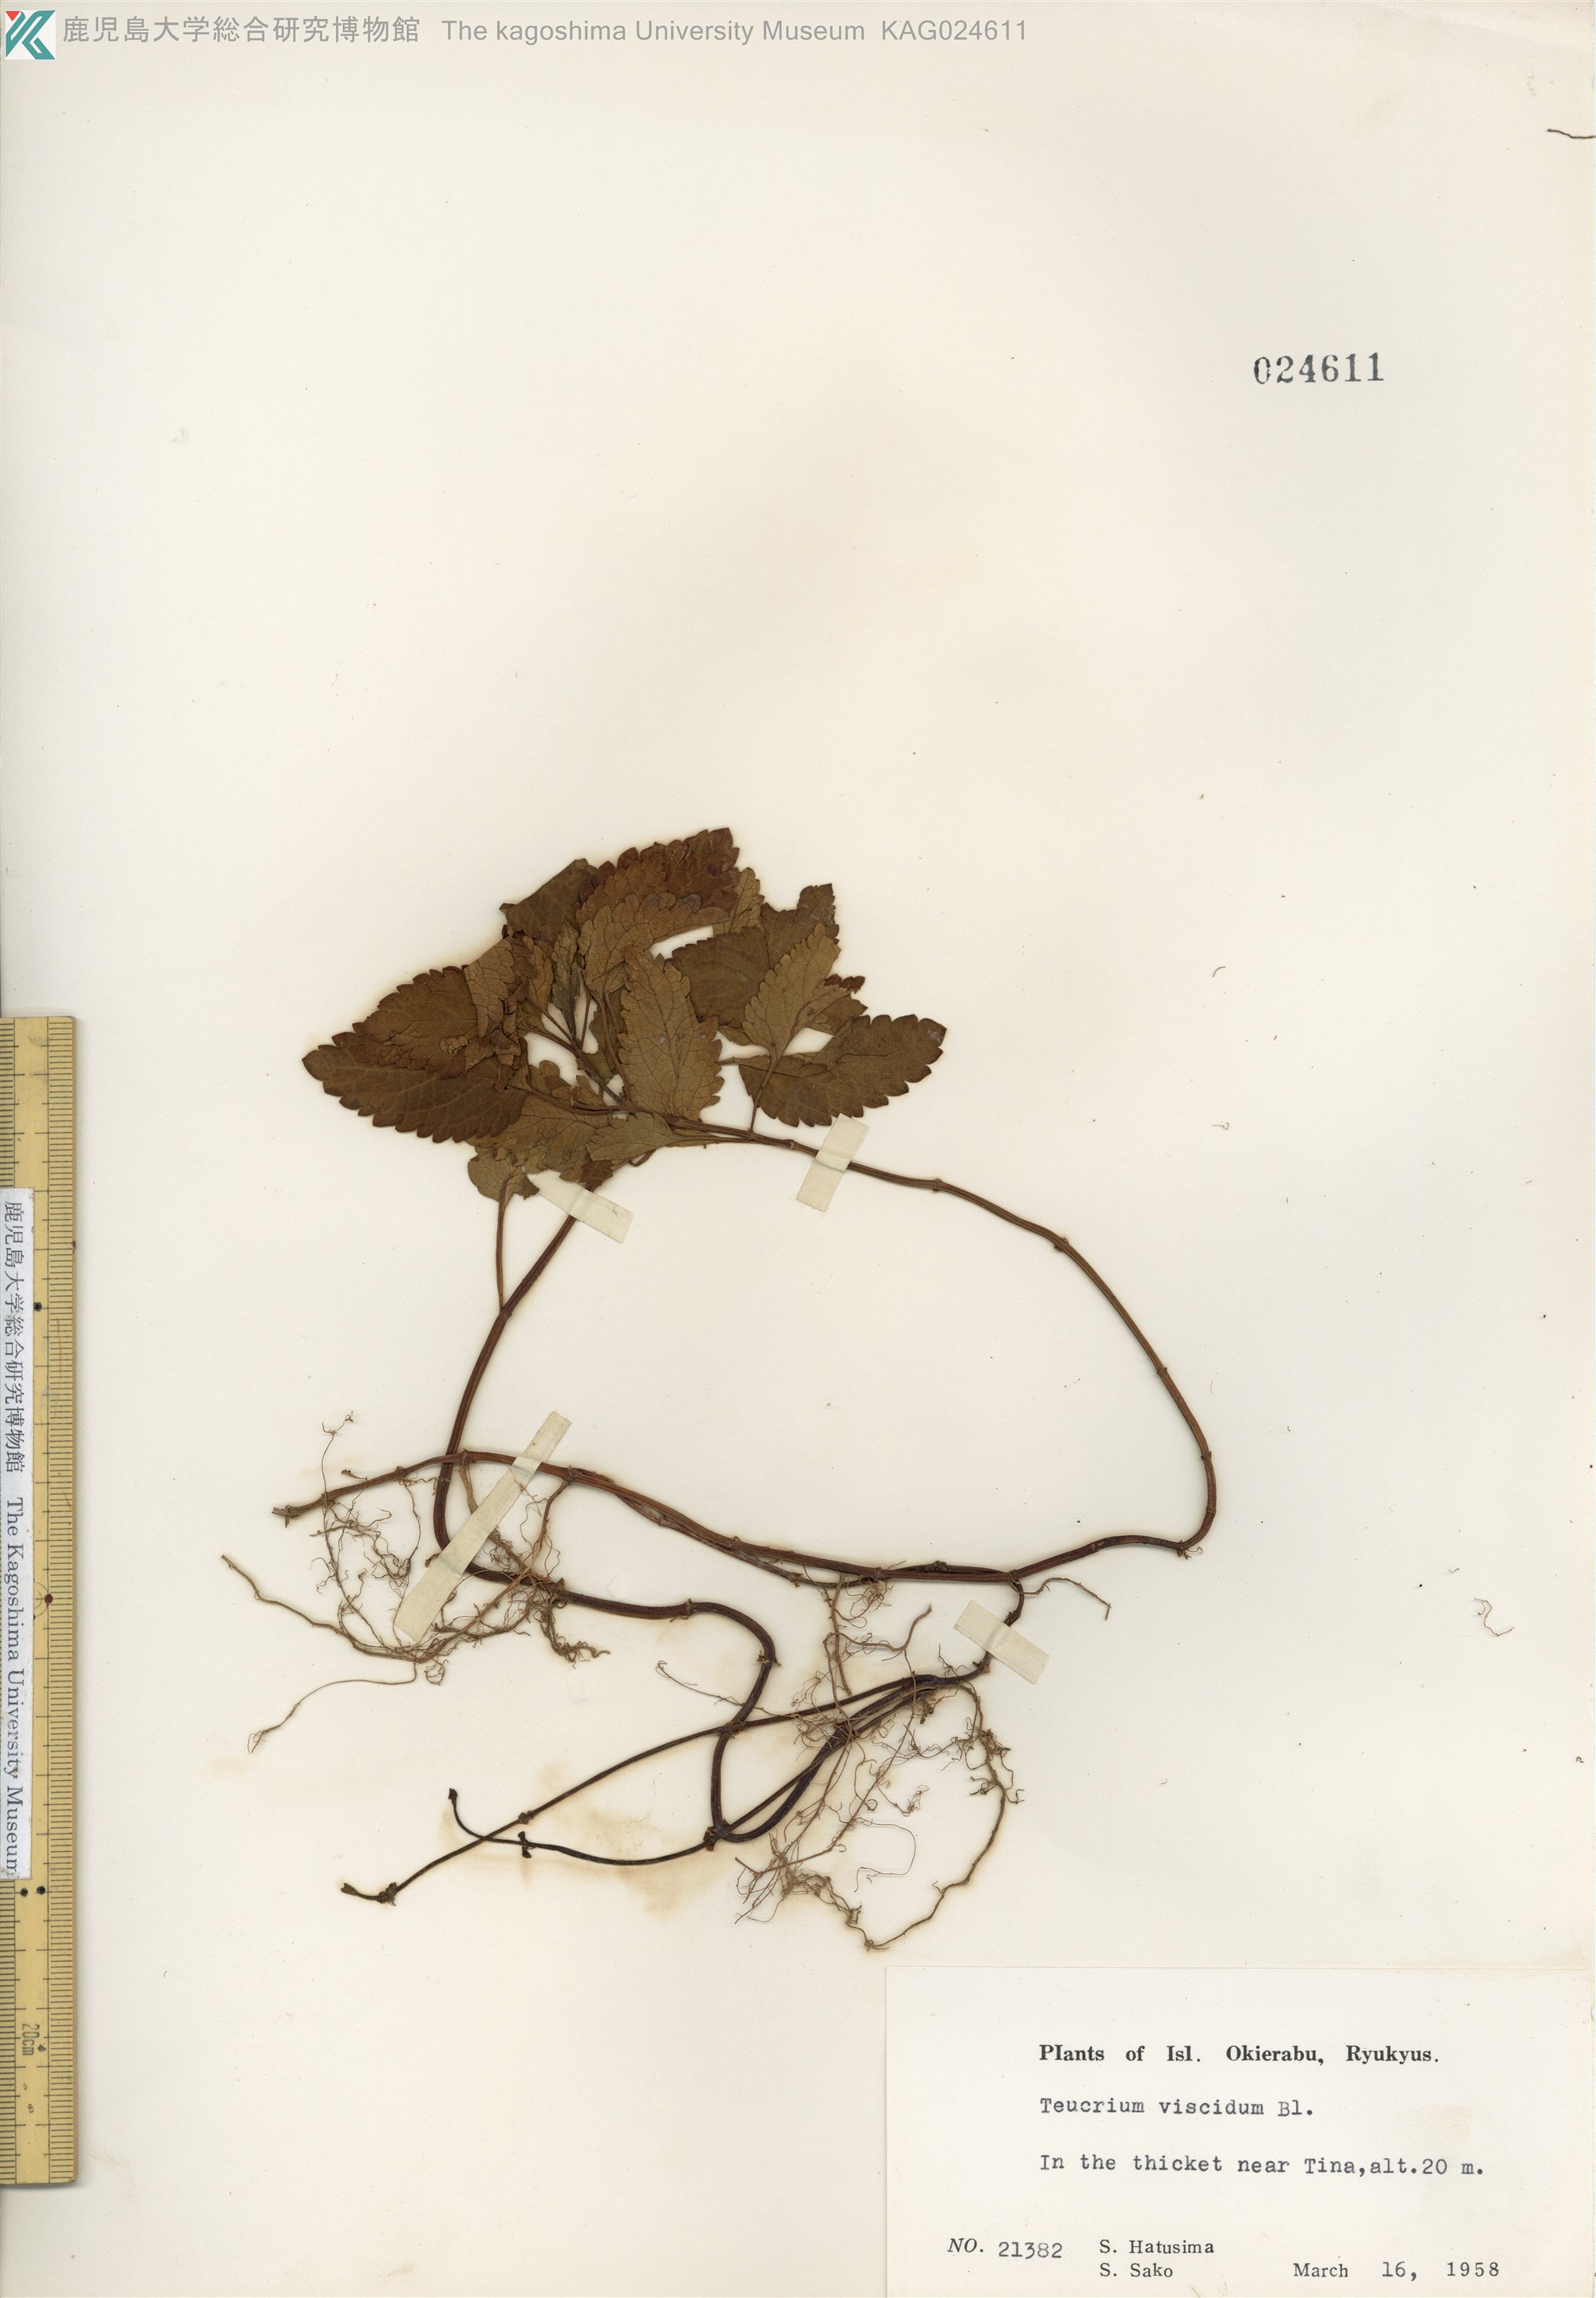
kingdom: Plantae
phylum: Tracheophyta
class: Magnoliopsida
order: Lamiales
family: Lamiaceae
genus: Teucrium
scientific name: Teucrium viscidum
